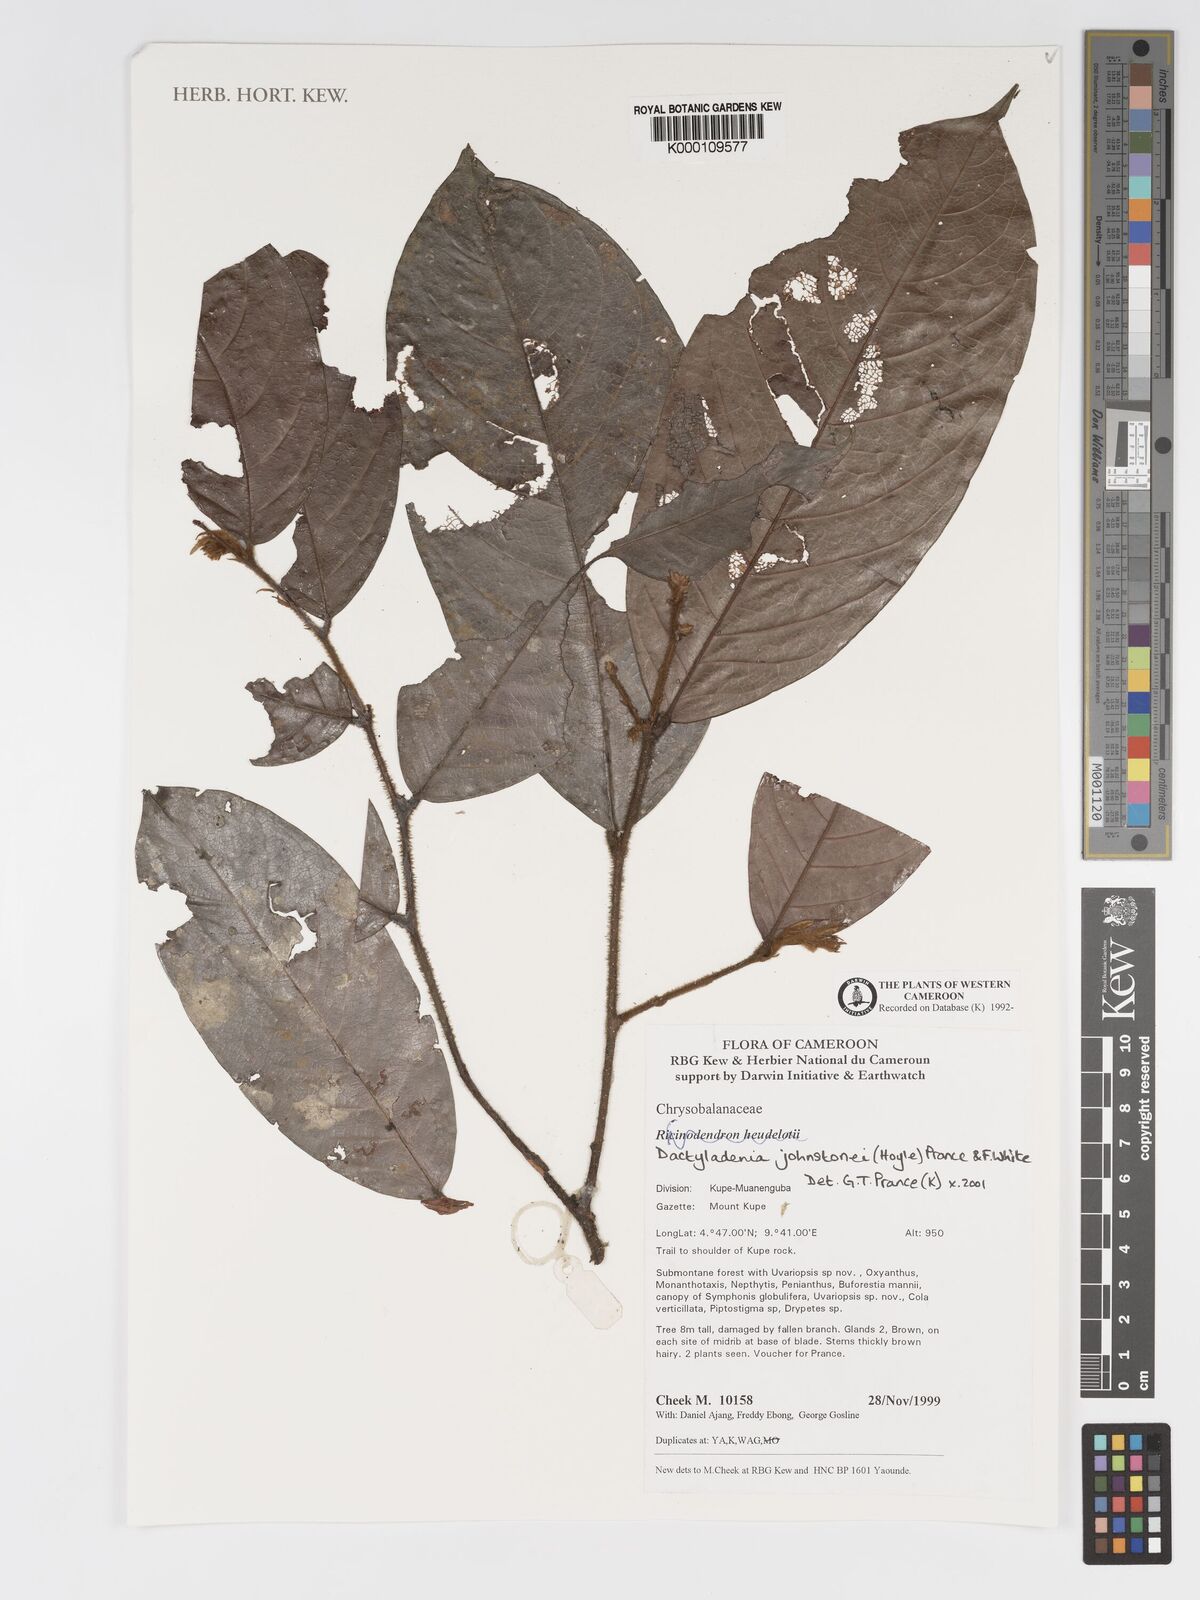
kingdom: Plantae
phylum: Tracheophyta
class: Magnoliopsida
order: Malpighiales
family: Chrysobalanaceae
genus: Dactyladenia
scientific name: Dactyladenia johnstonei
